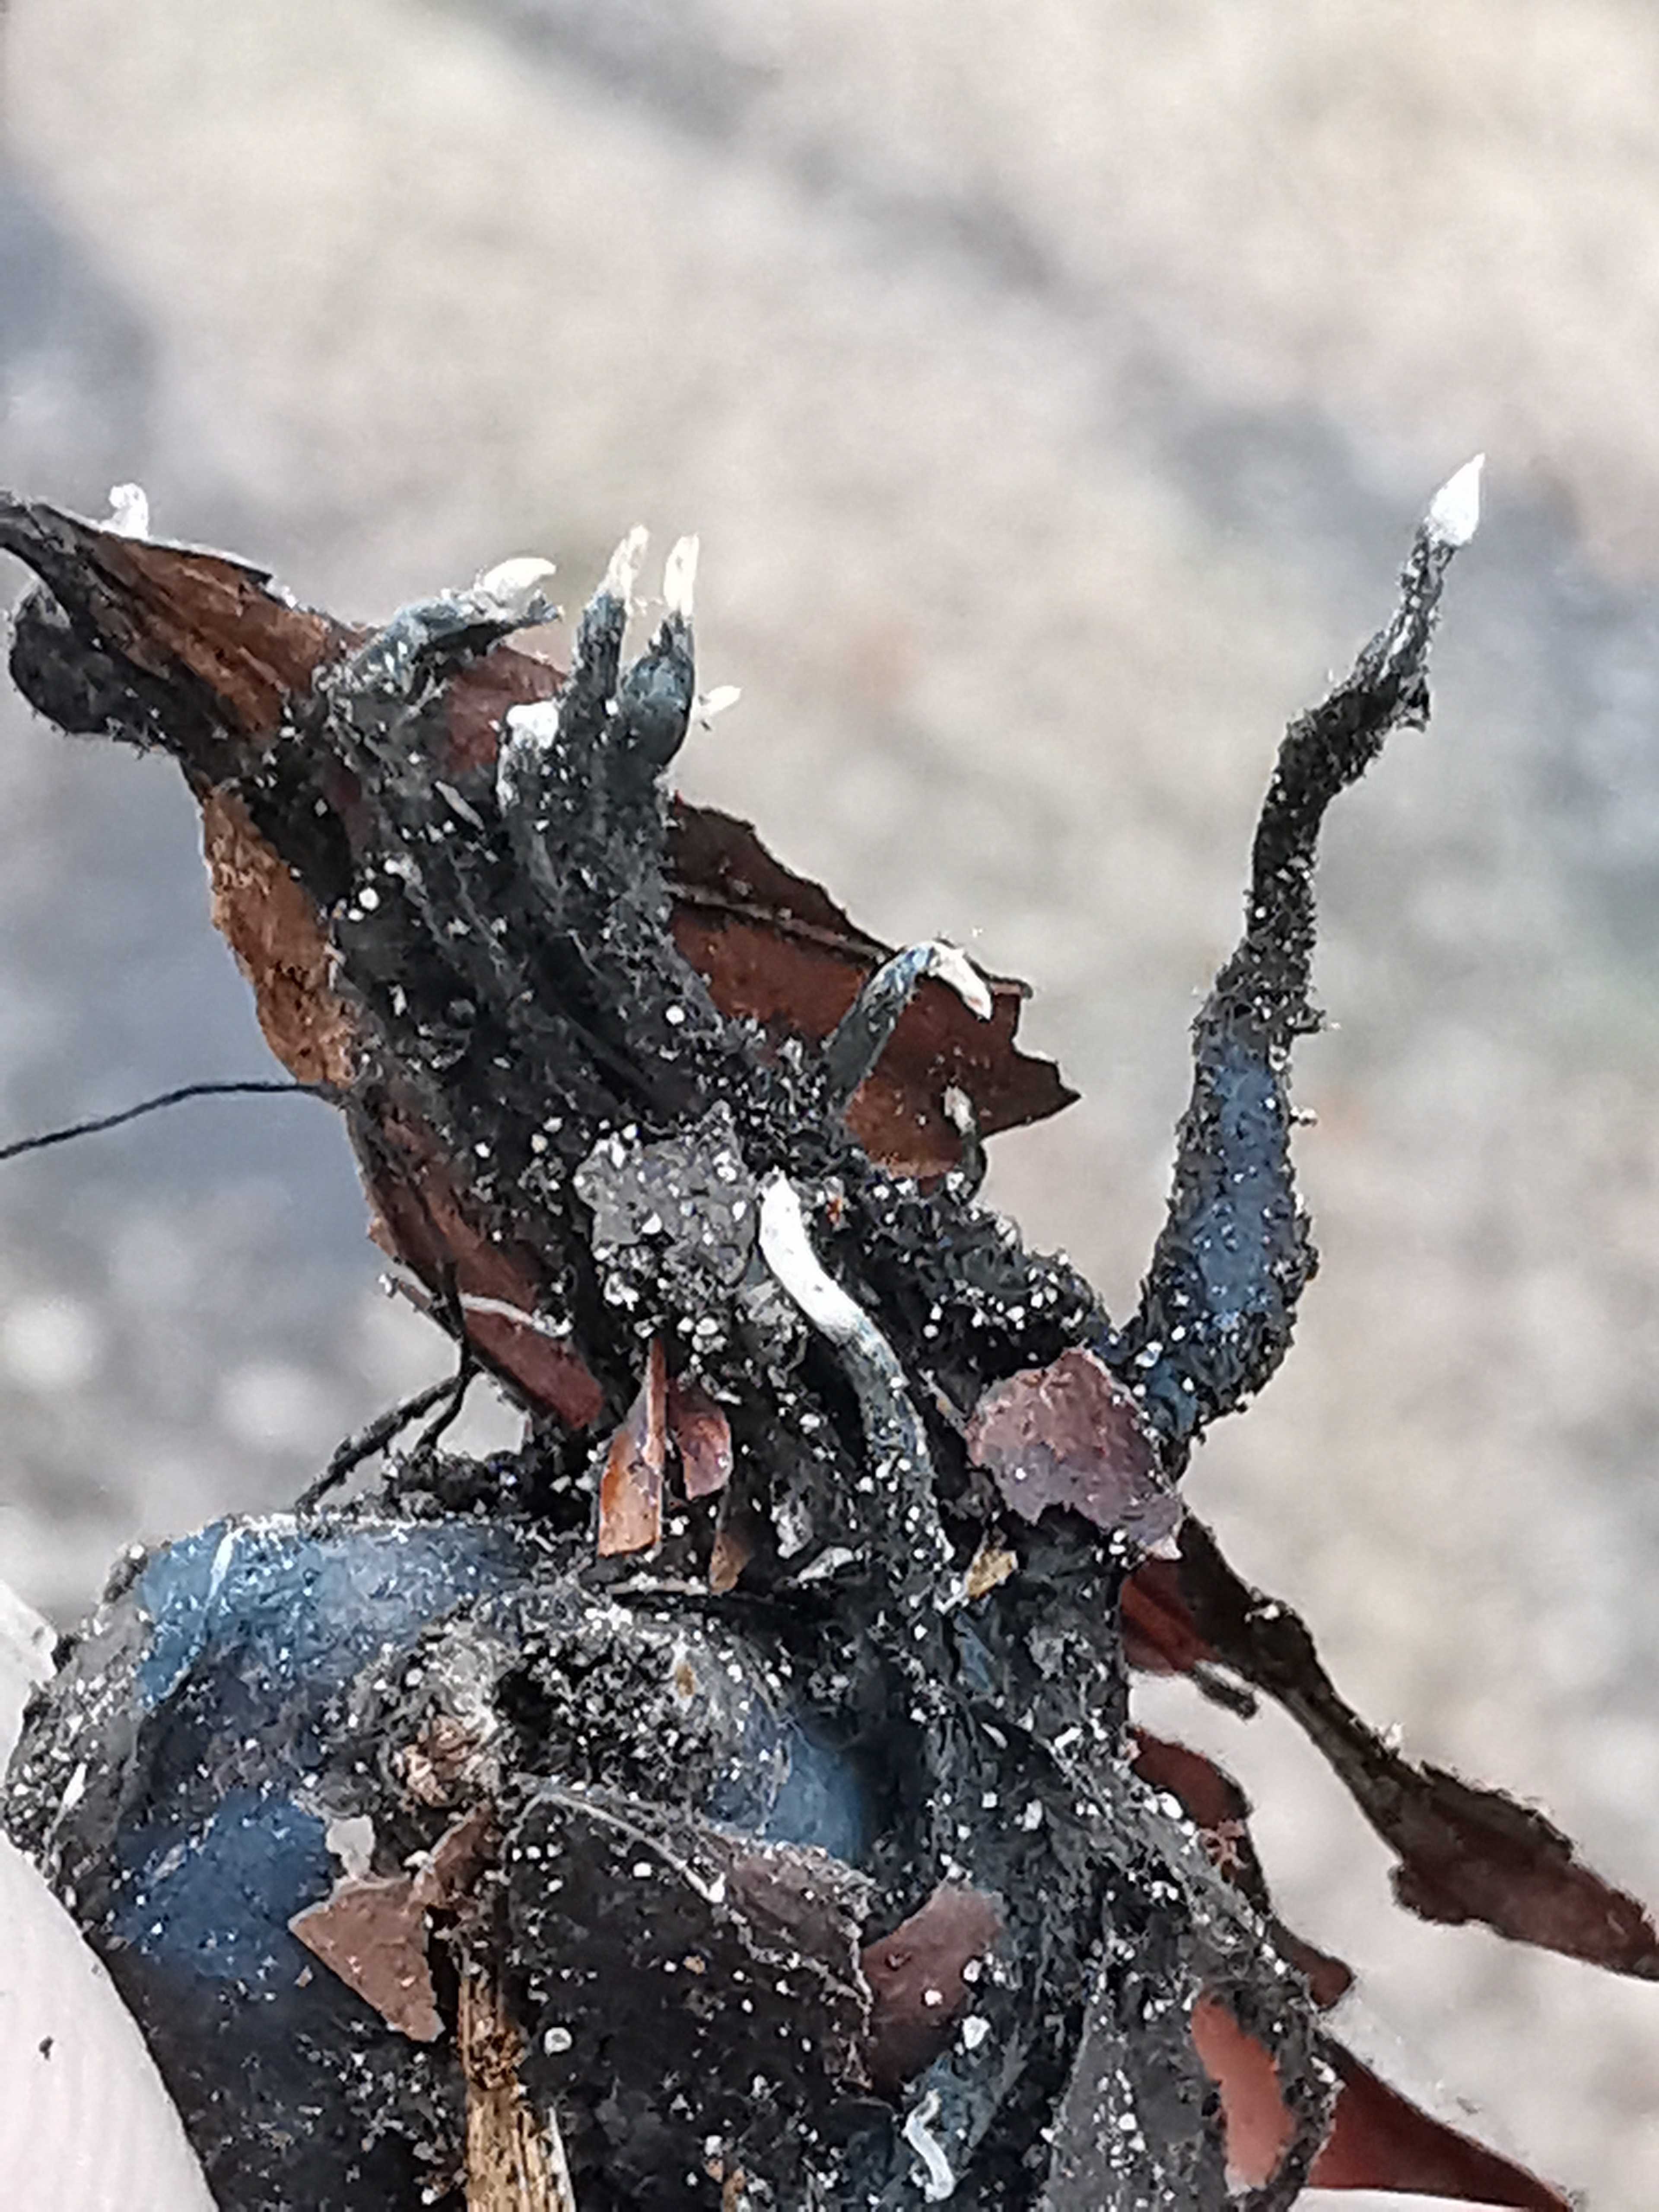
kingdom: Fungi
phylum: Ascomycota
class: Sordariomycetes
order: Xylariales
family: Xylariaceae
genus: Xylaria
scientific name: Xylaria carpophila
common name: bogskål-stødsvamp
